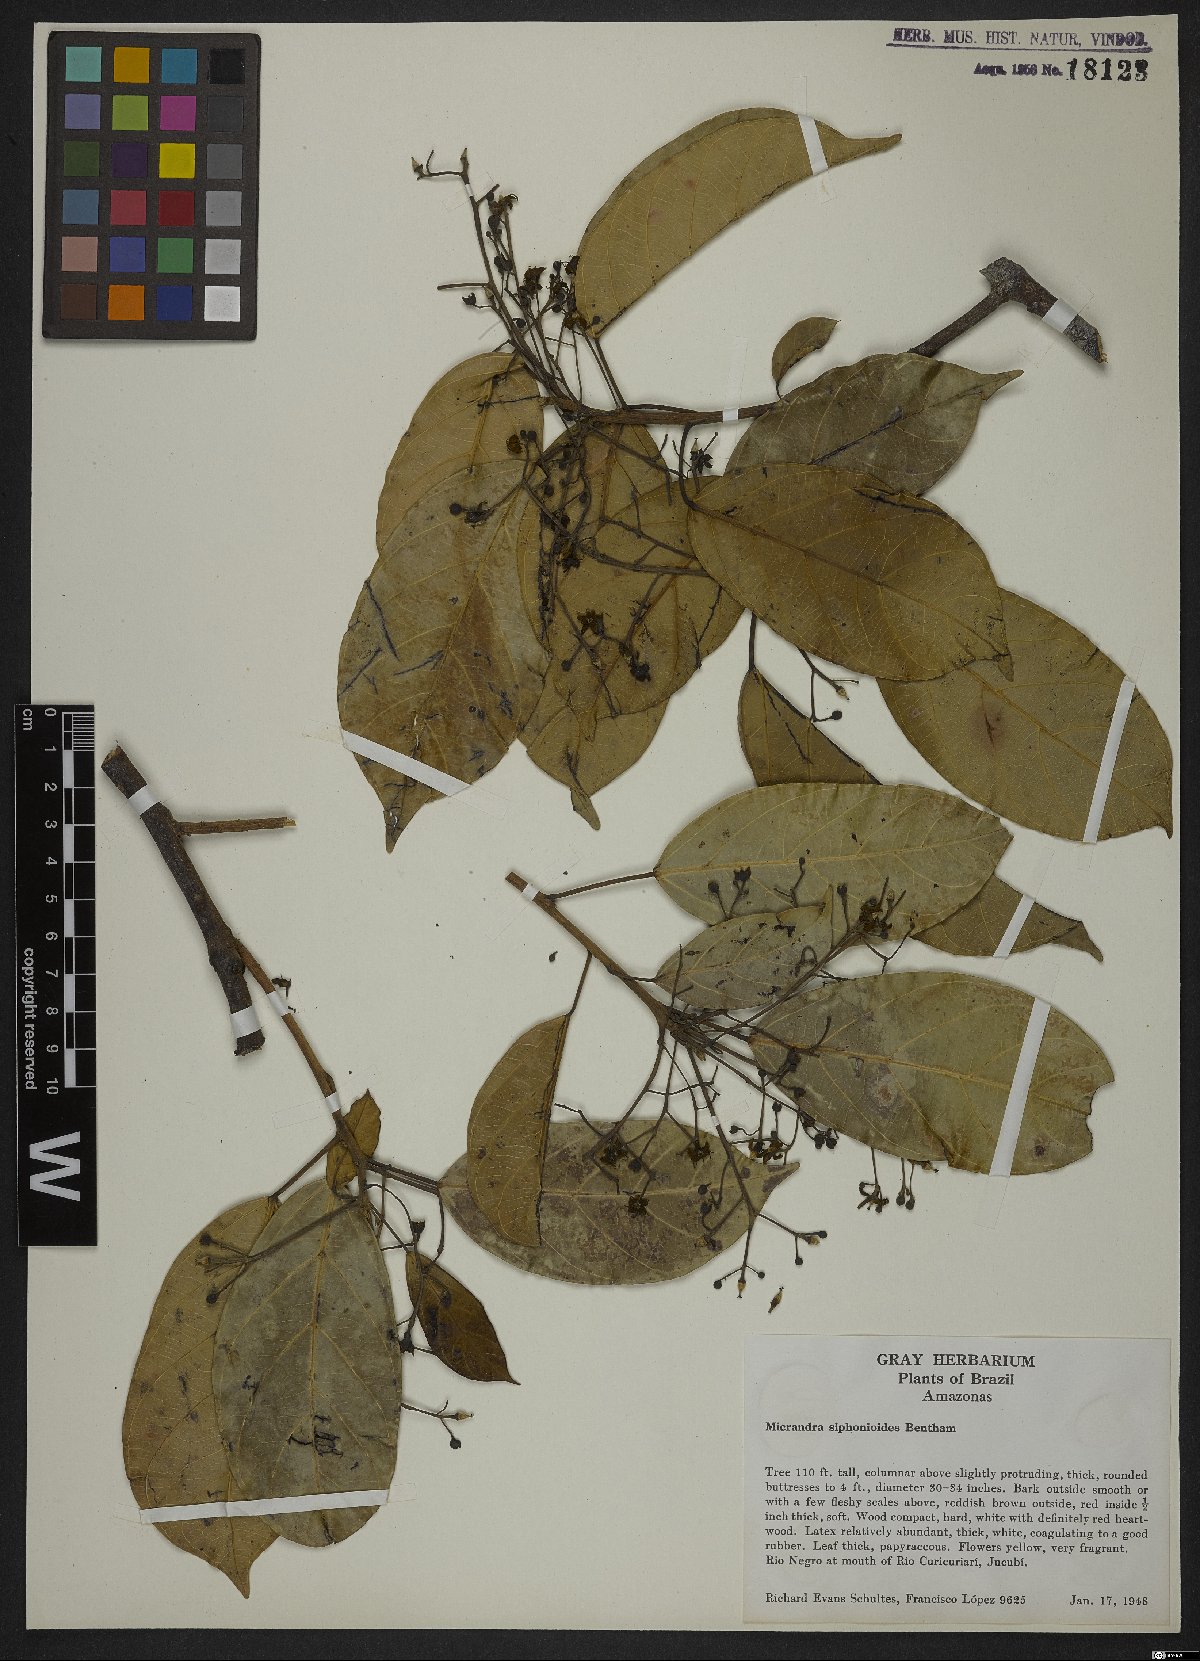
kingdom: Plantae
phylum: Tracheophyta
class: Magnoliopsida
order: Malpighiales
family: Euphorbiaceae
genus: Micrandra
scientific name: Micrandra siphonioides
